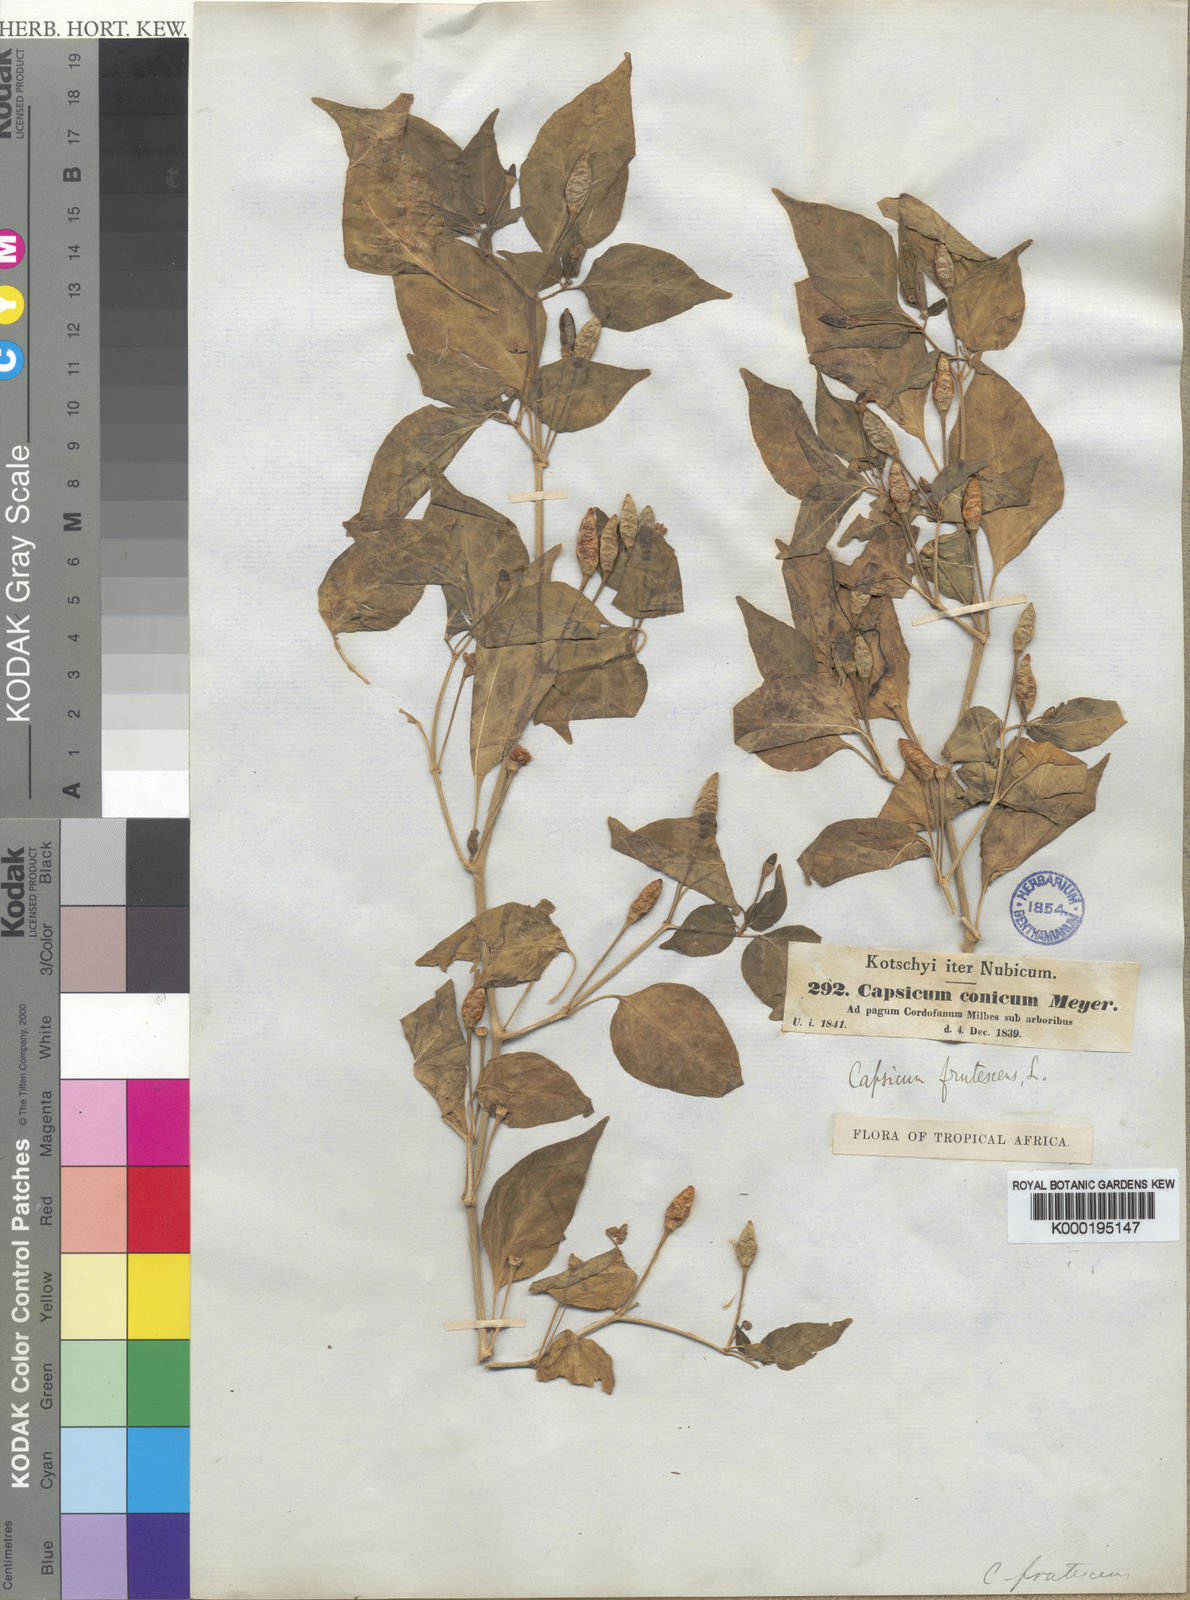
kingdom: Plantae
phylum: Tracheophyta
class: Magnoliopsida
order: Solanales
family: Solanaceae
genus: Capsicum
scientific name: Capsicum frutescens
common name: Bird pepper
